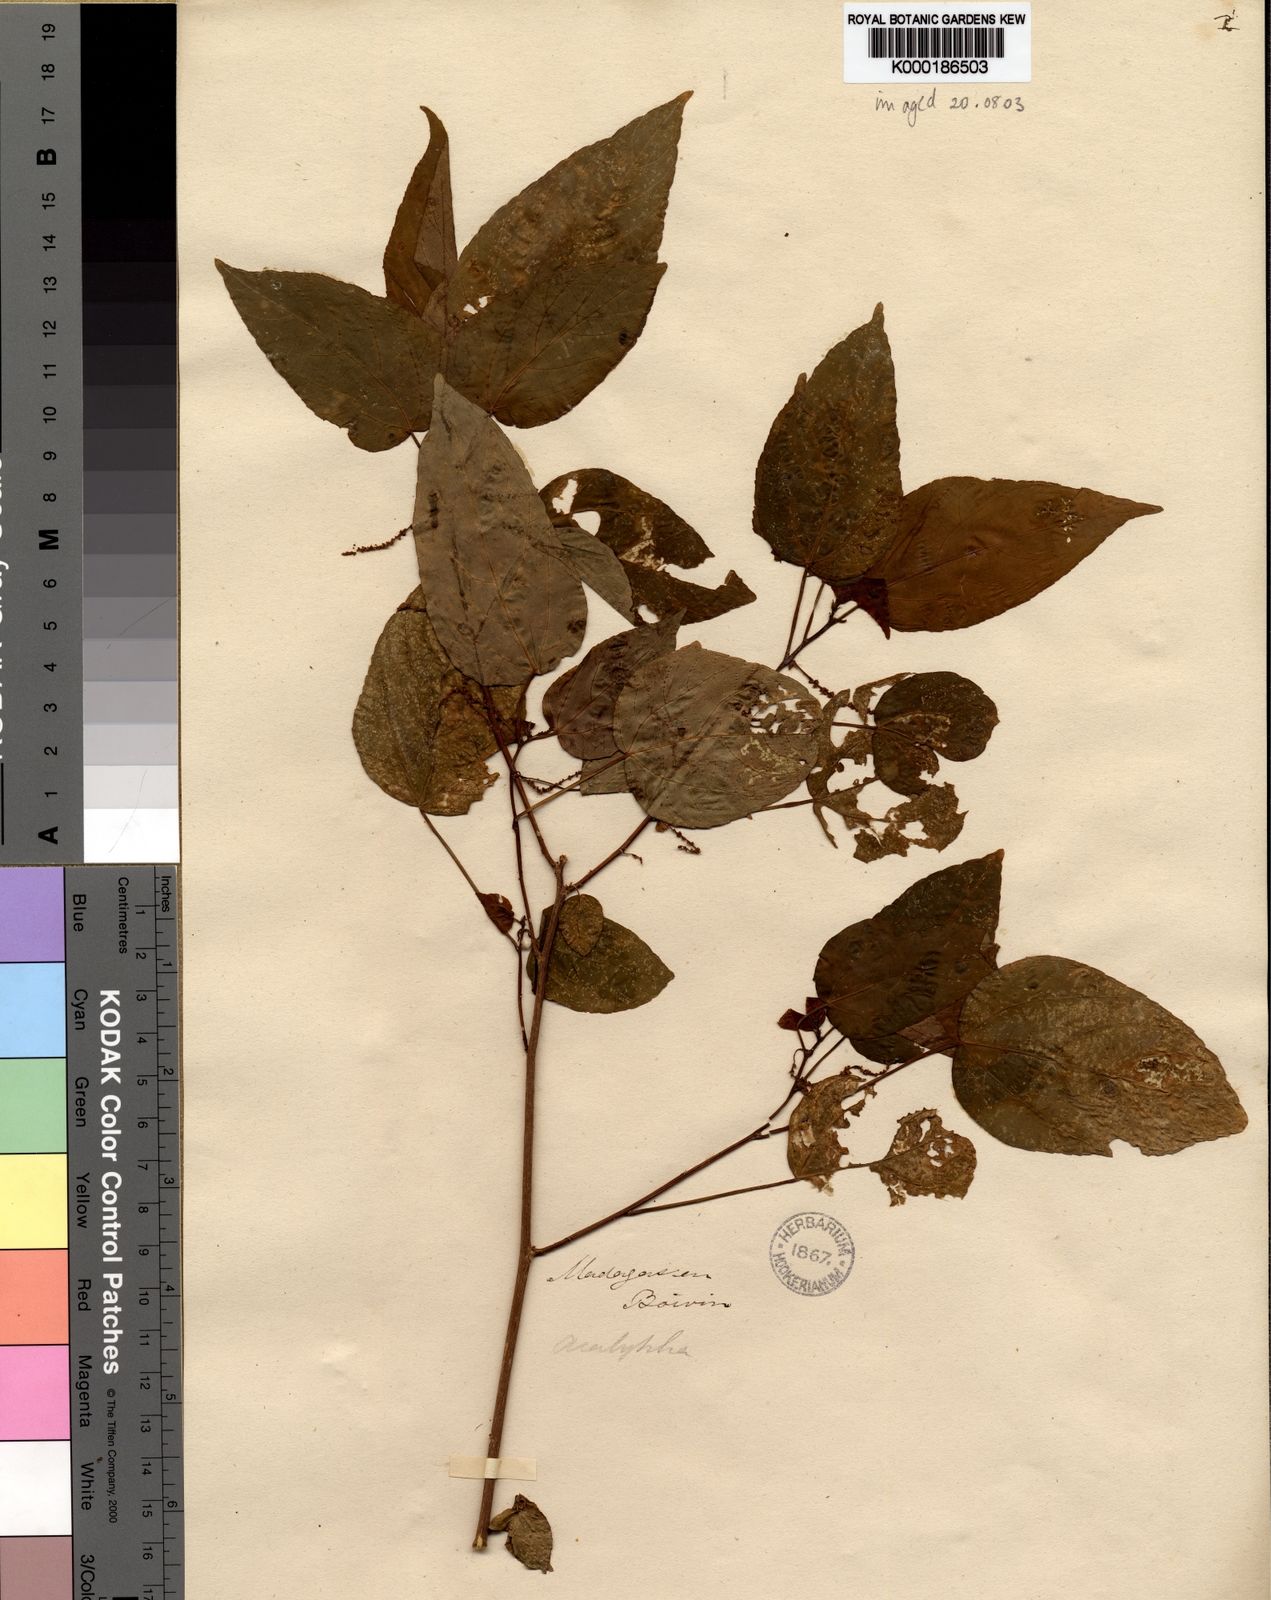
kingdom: Plantae
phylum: Tracheophyta
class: Magnoliopsida
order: Malpighiales
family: Euphorbiaceae
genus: Acalypha
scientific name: Acalypha lamiana
